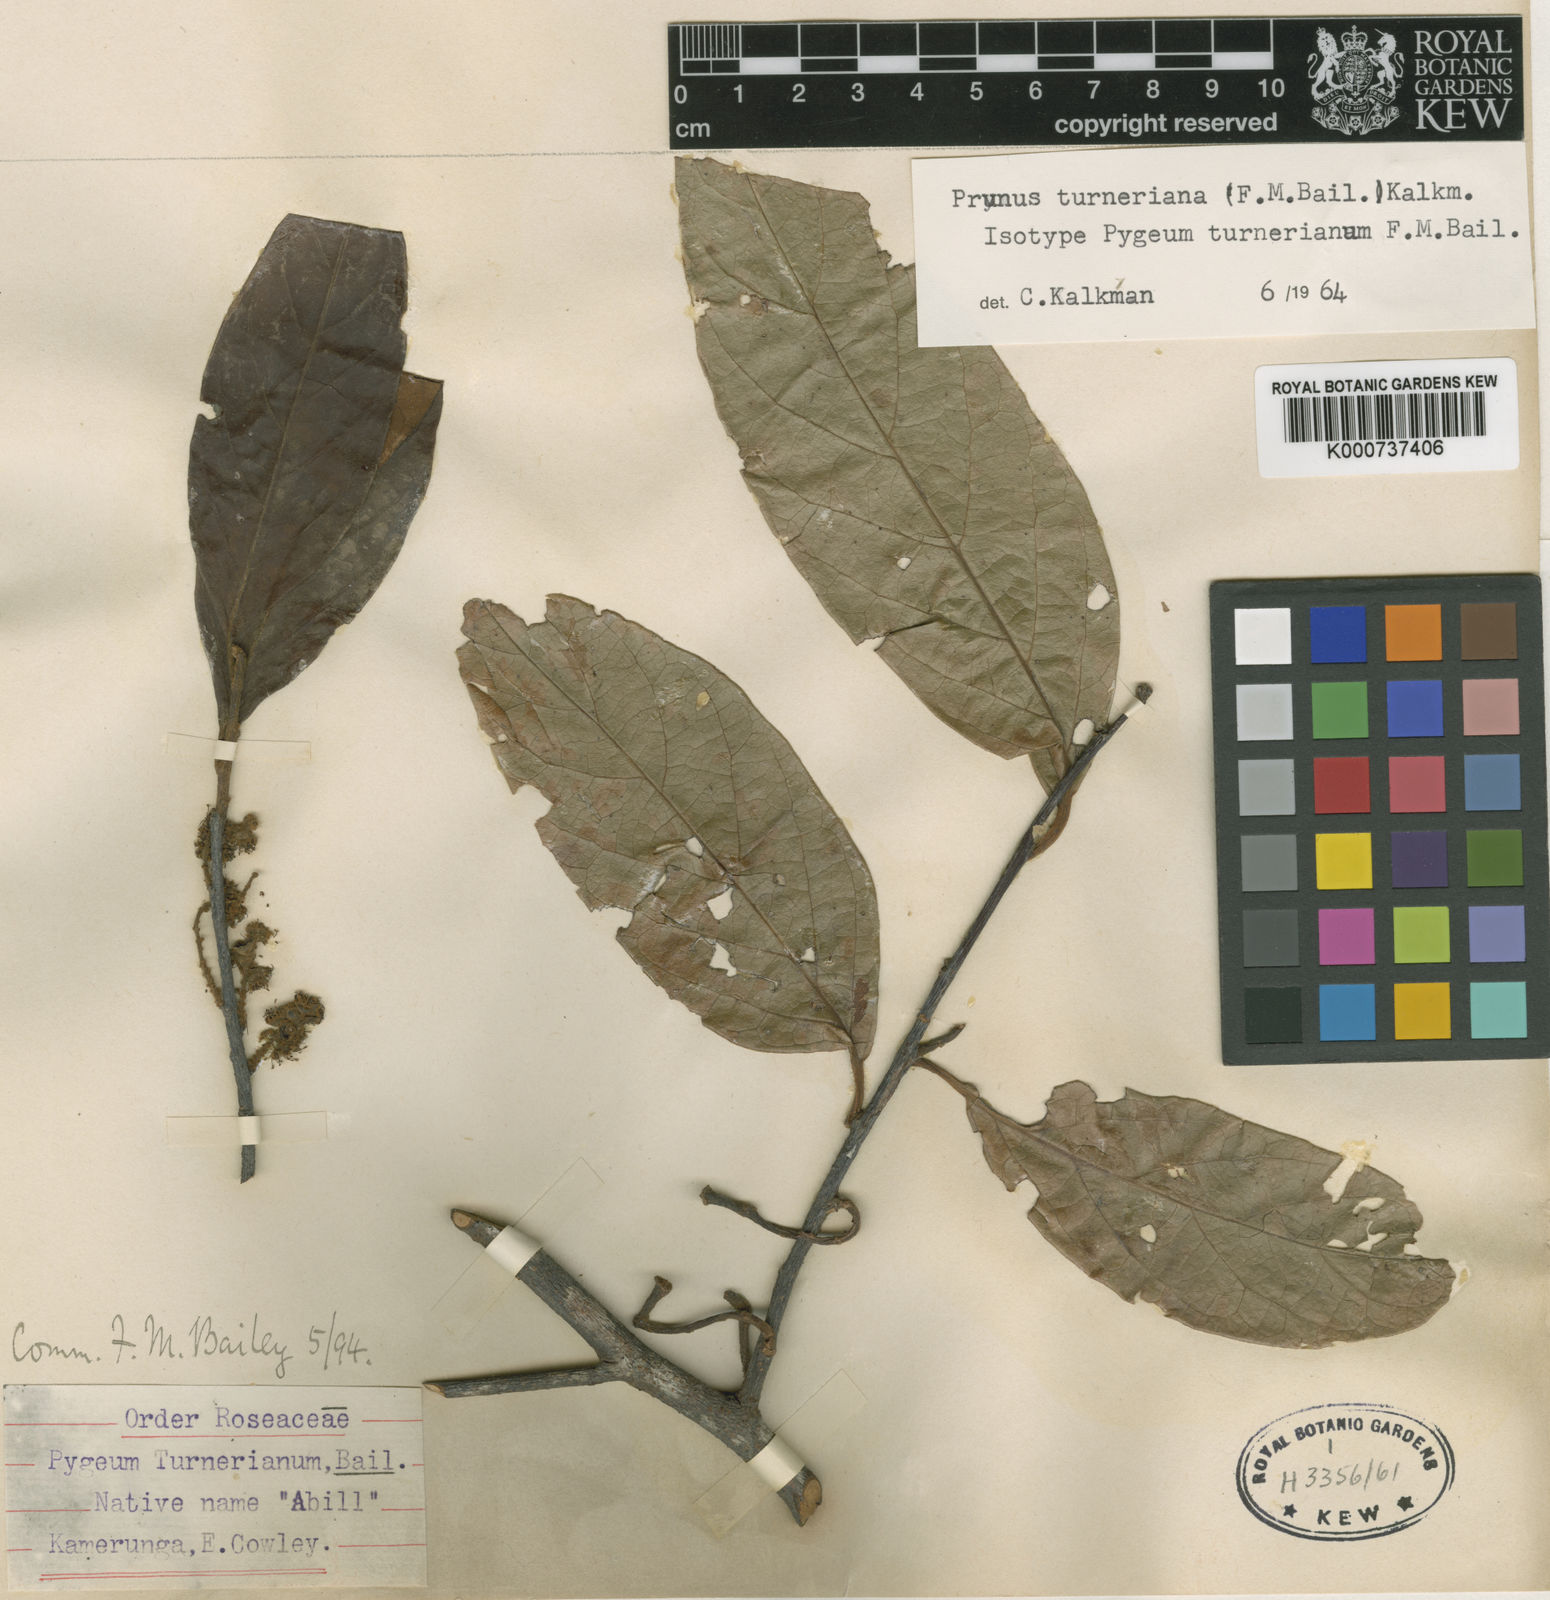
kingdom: Plantae
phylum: Tracheophyta
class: Magnoliopsida
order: Rosales
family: Rosaceae
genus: Prunus
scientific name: Prunus turneriana
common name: Wild almond
